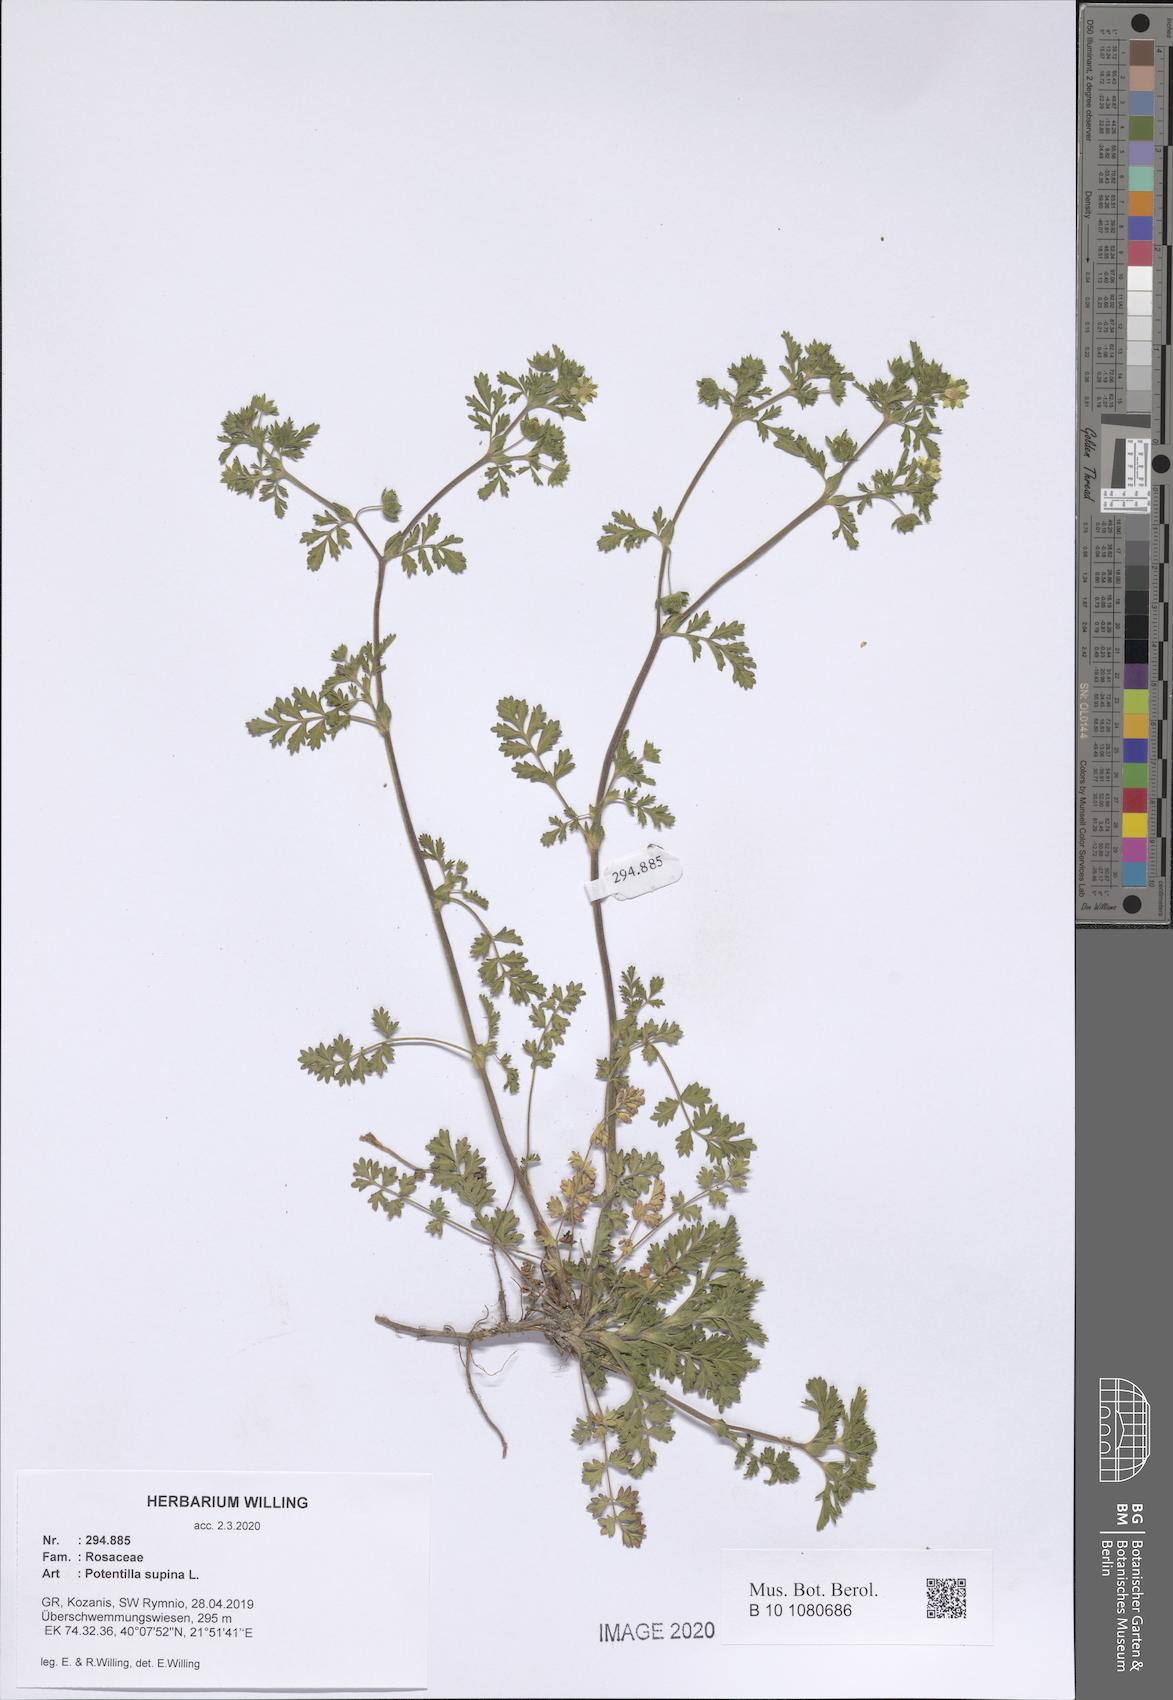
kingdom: Plantae
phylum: Tracheophyta
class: Magnoliopsida
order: Rosales
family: Rosaceae
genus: Potentilla
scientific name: Potentilla supina
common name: Prostrate cinquefoil
